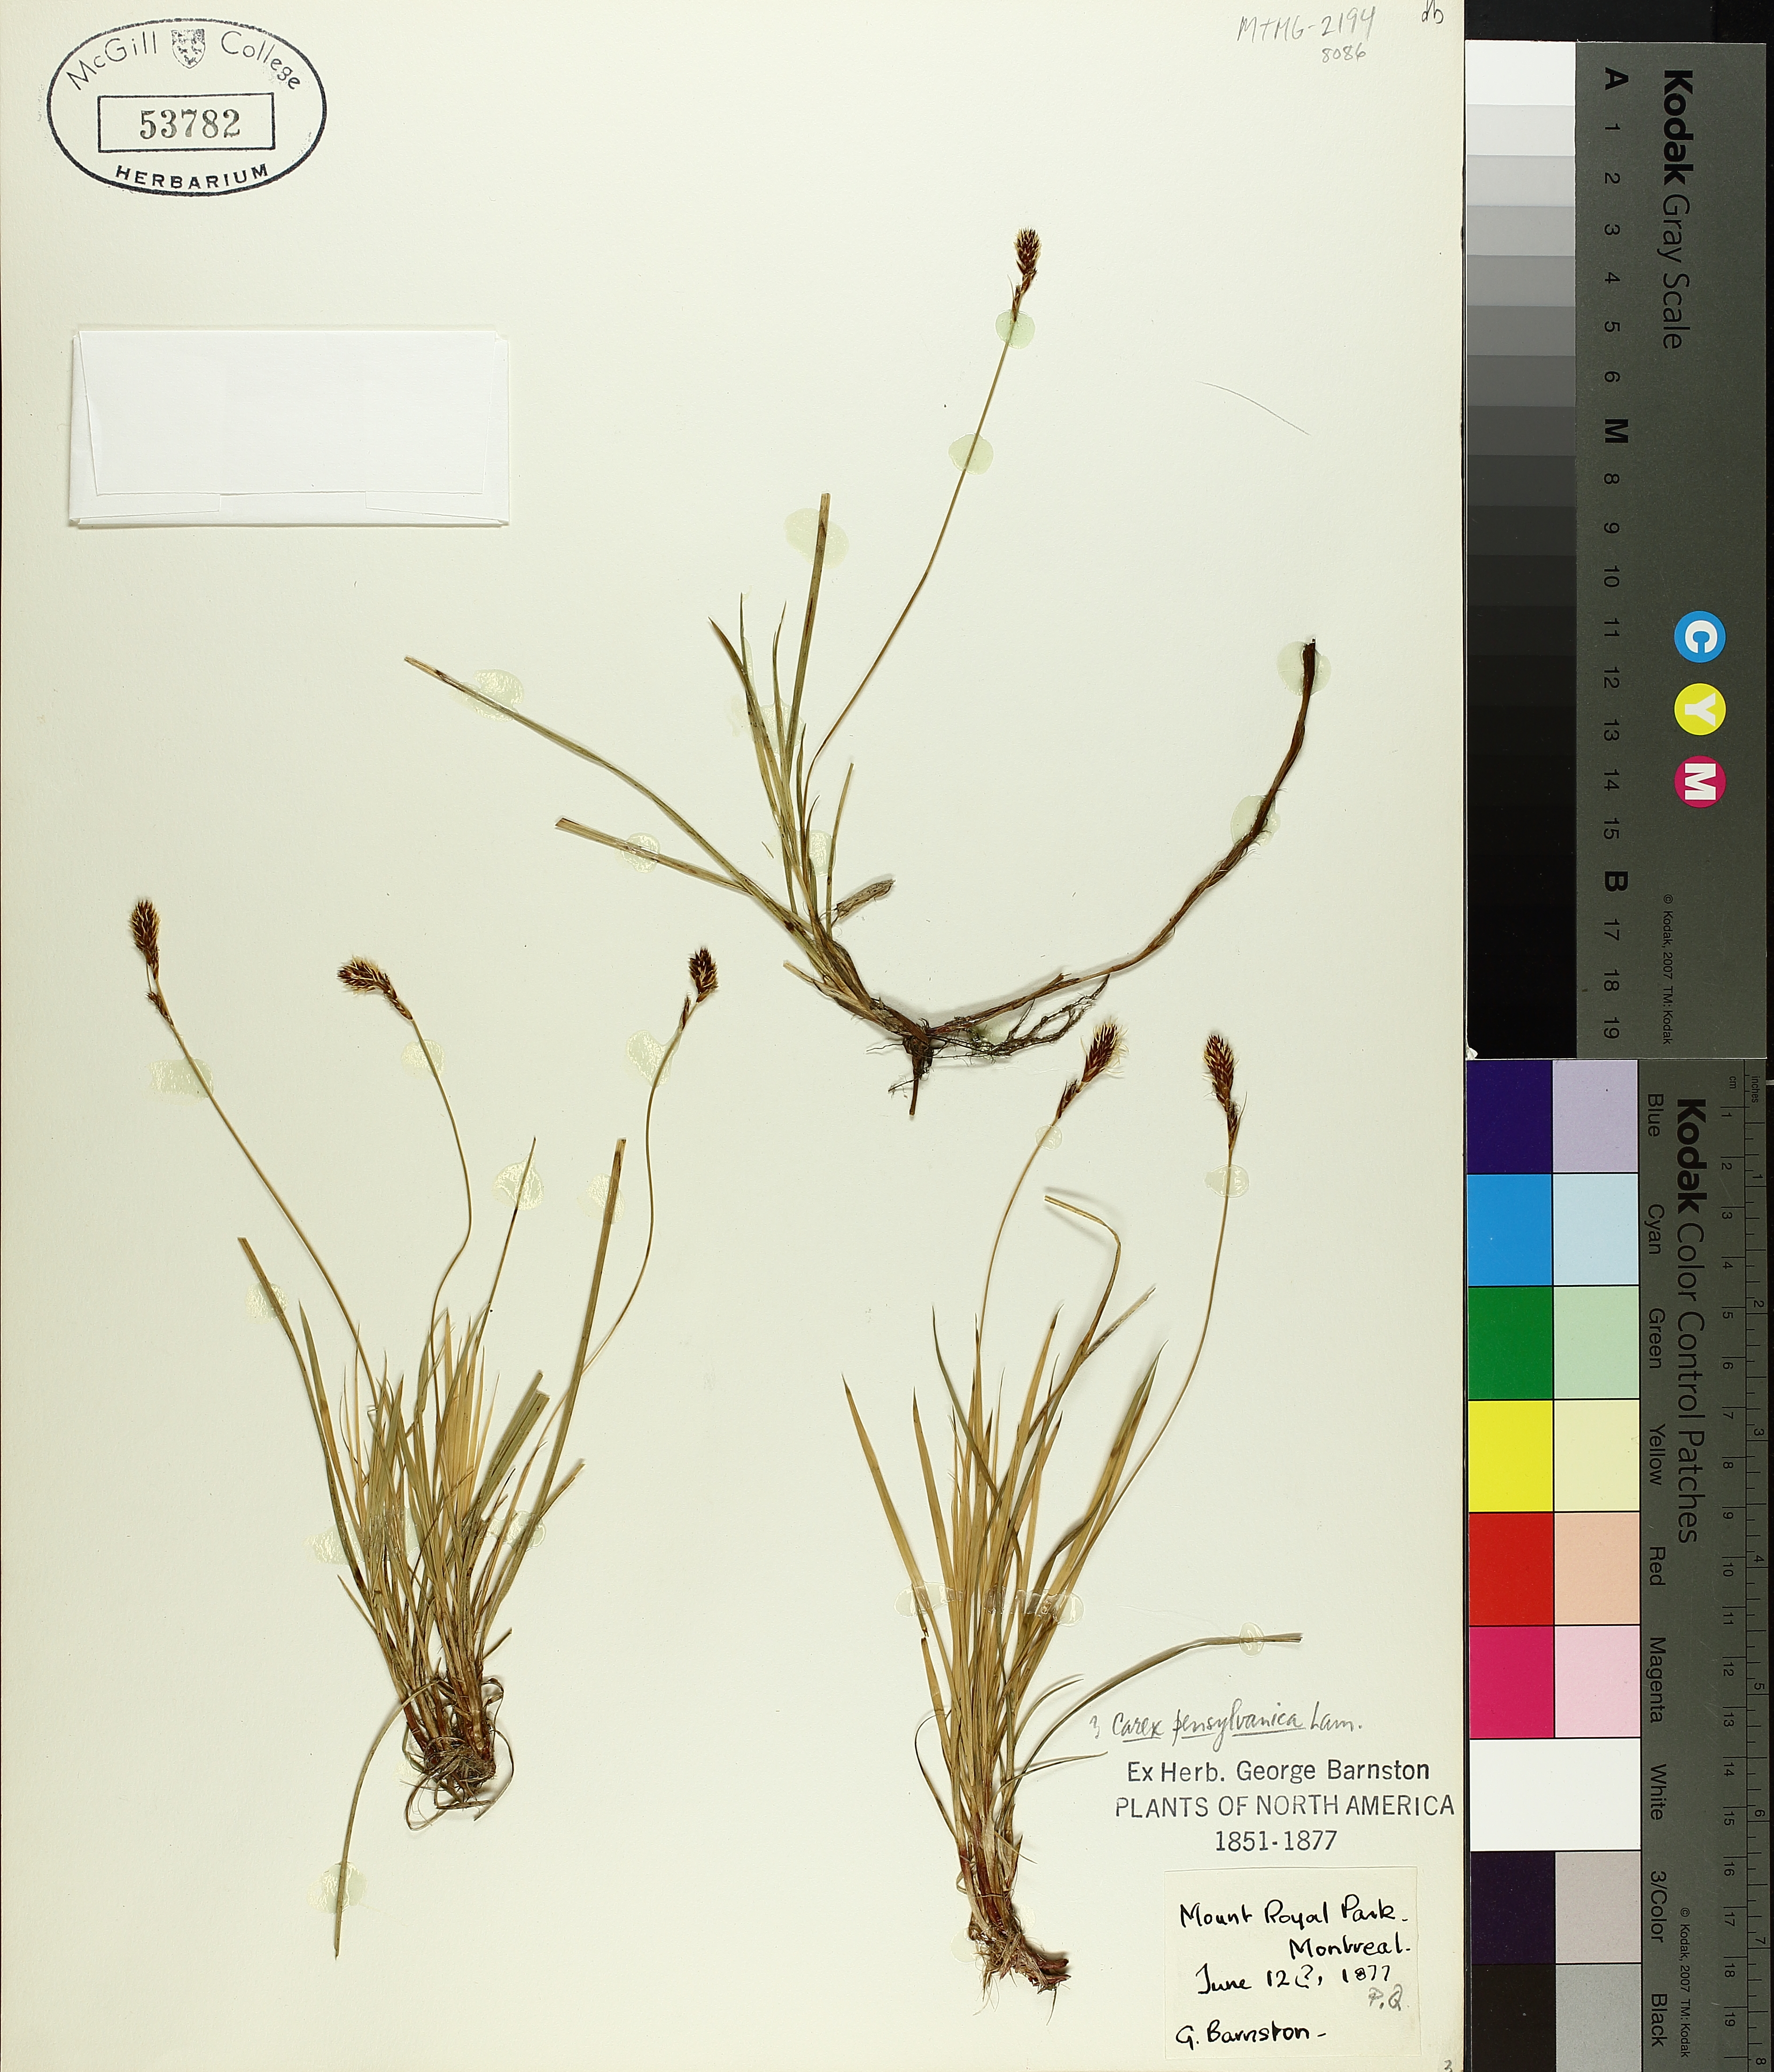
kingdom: Plantae
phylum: Tracheophyta
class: Liliopsida
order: Poales
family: Cyperaceae
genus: Carex
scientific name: Carex pensylvanica
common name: Common oak sedge
